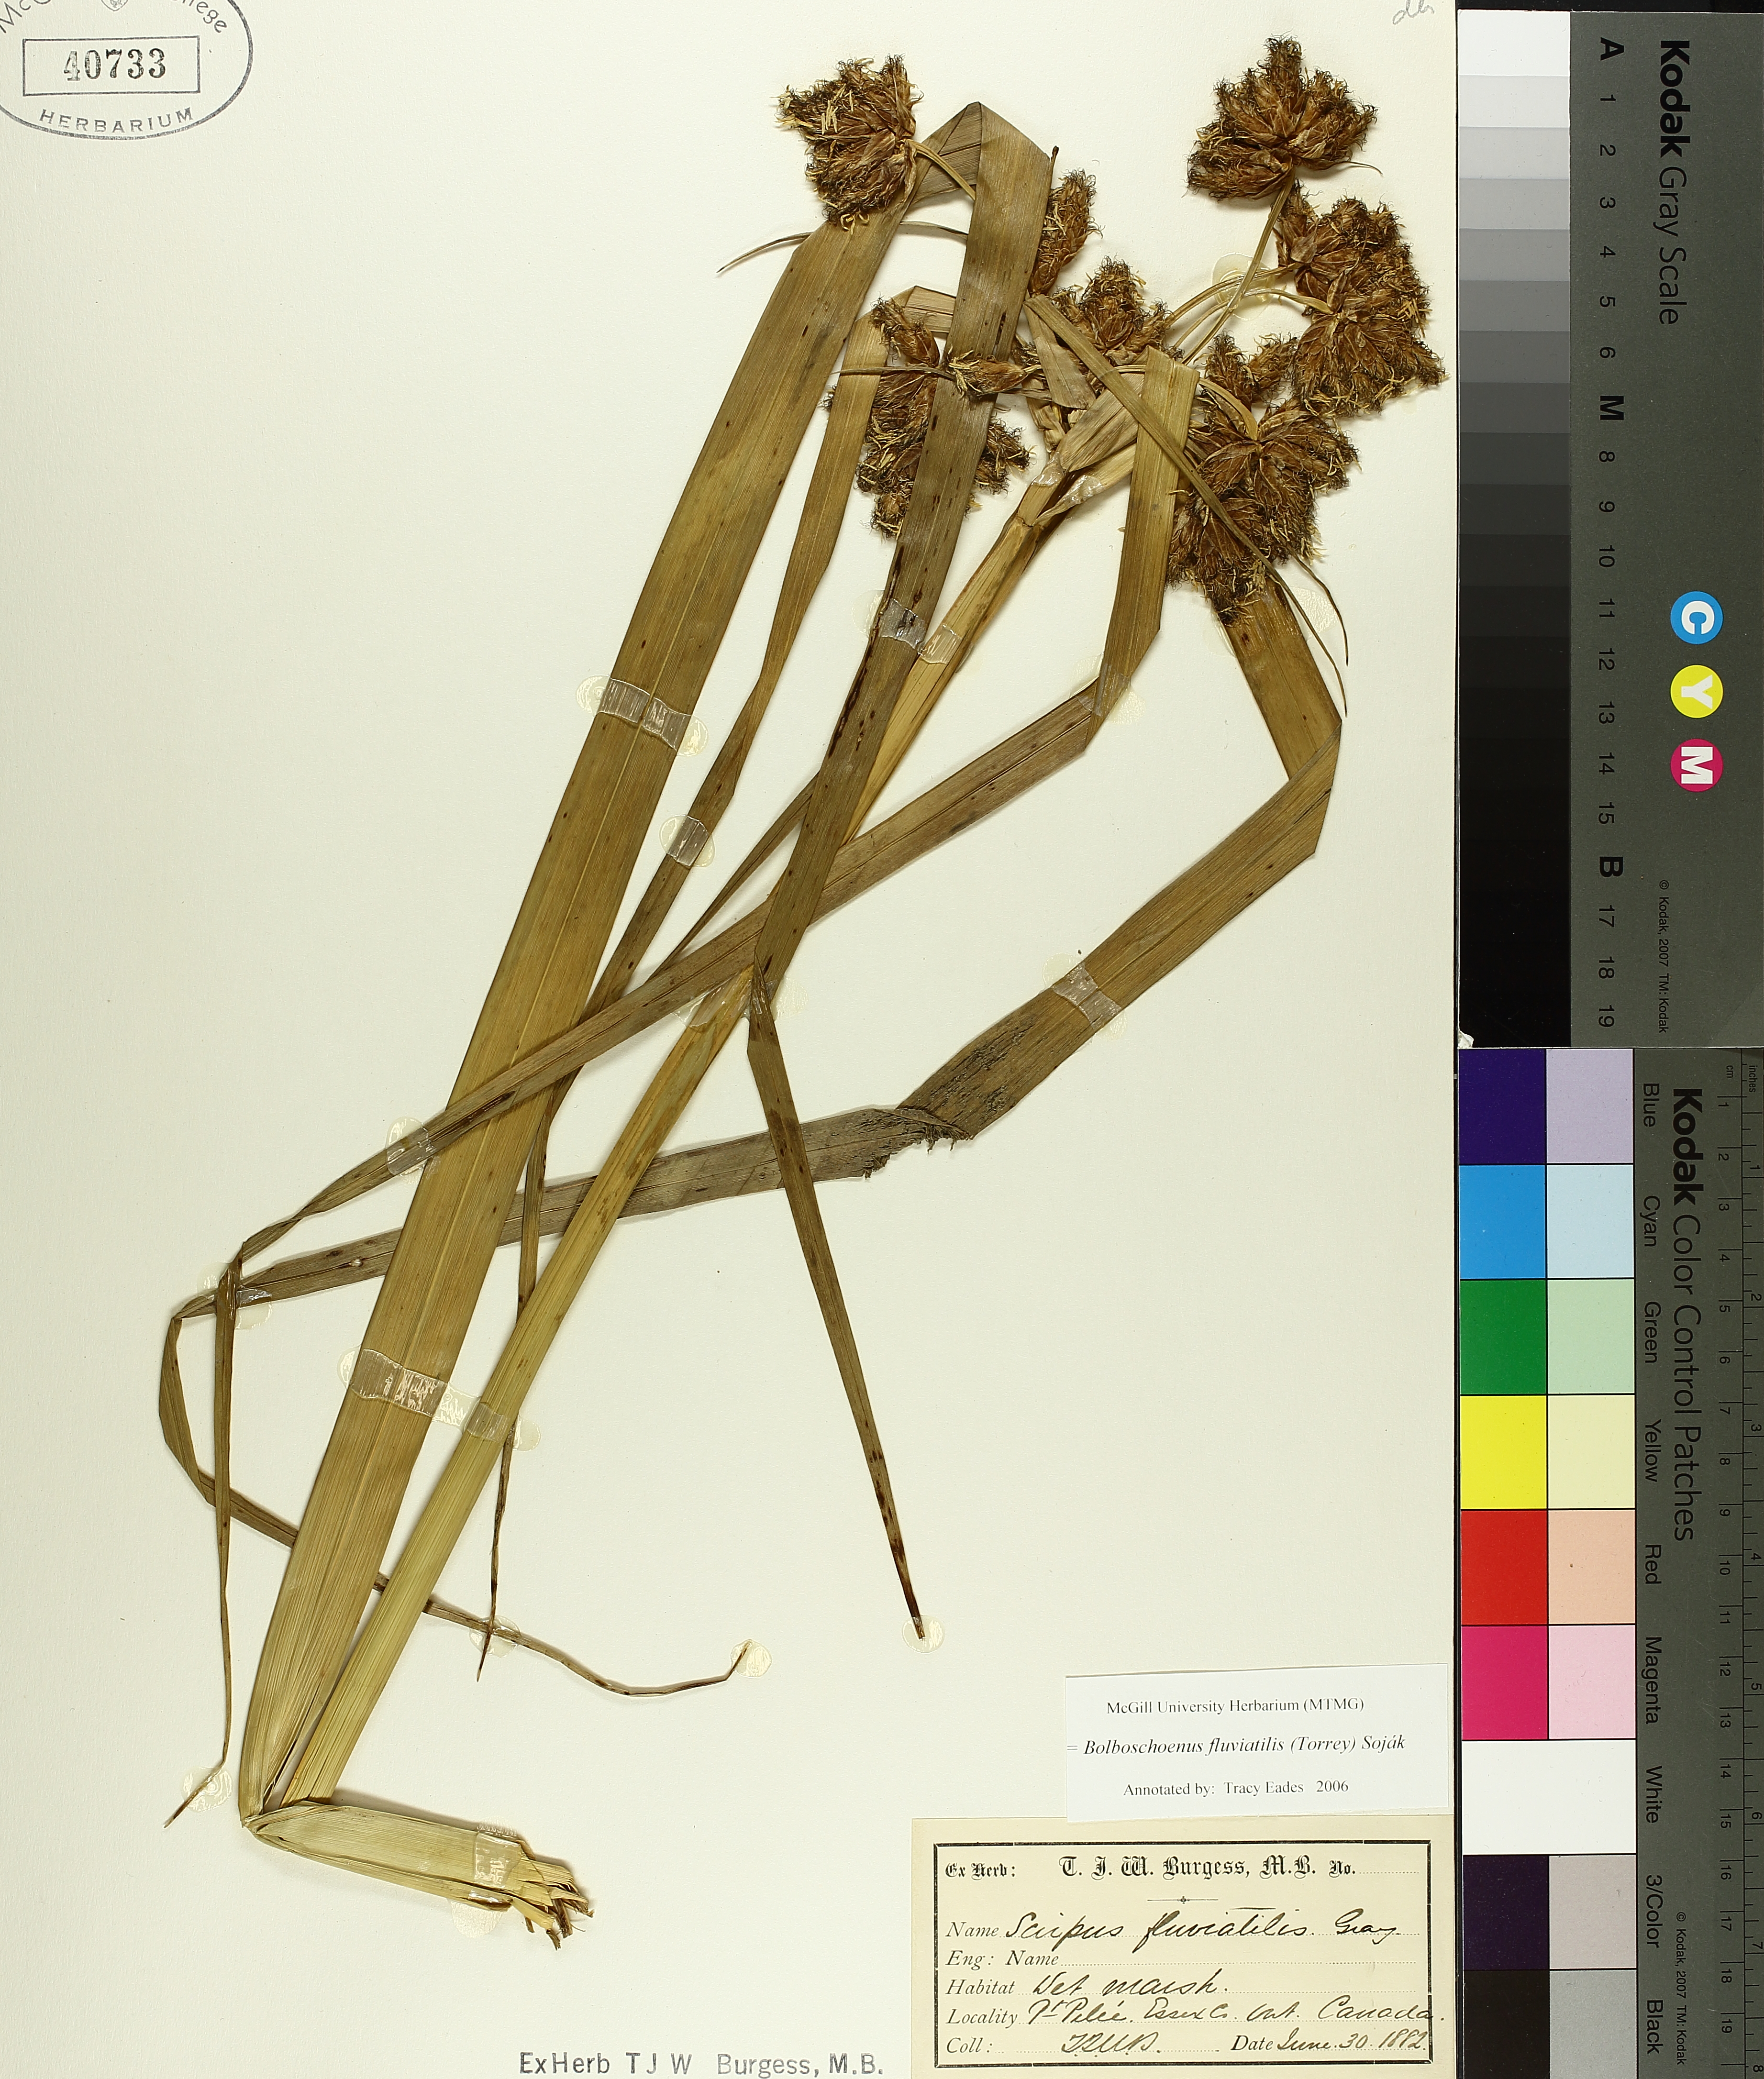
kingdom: Plantae
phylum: Tracheophyta
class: Liliopsida
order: Poales
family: Cyperaceae
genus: Bolboschoenus
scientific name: Bolboschoenus fluviatilis
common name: River bulrush
